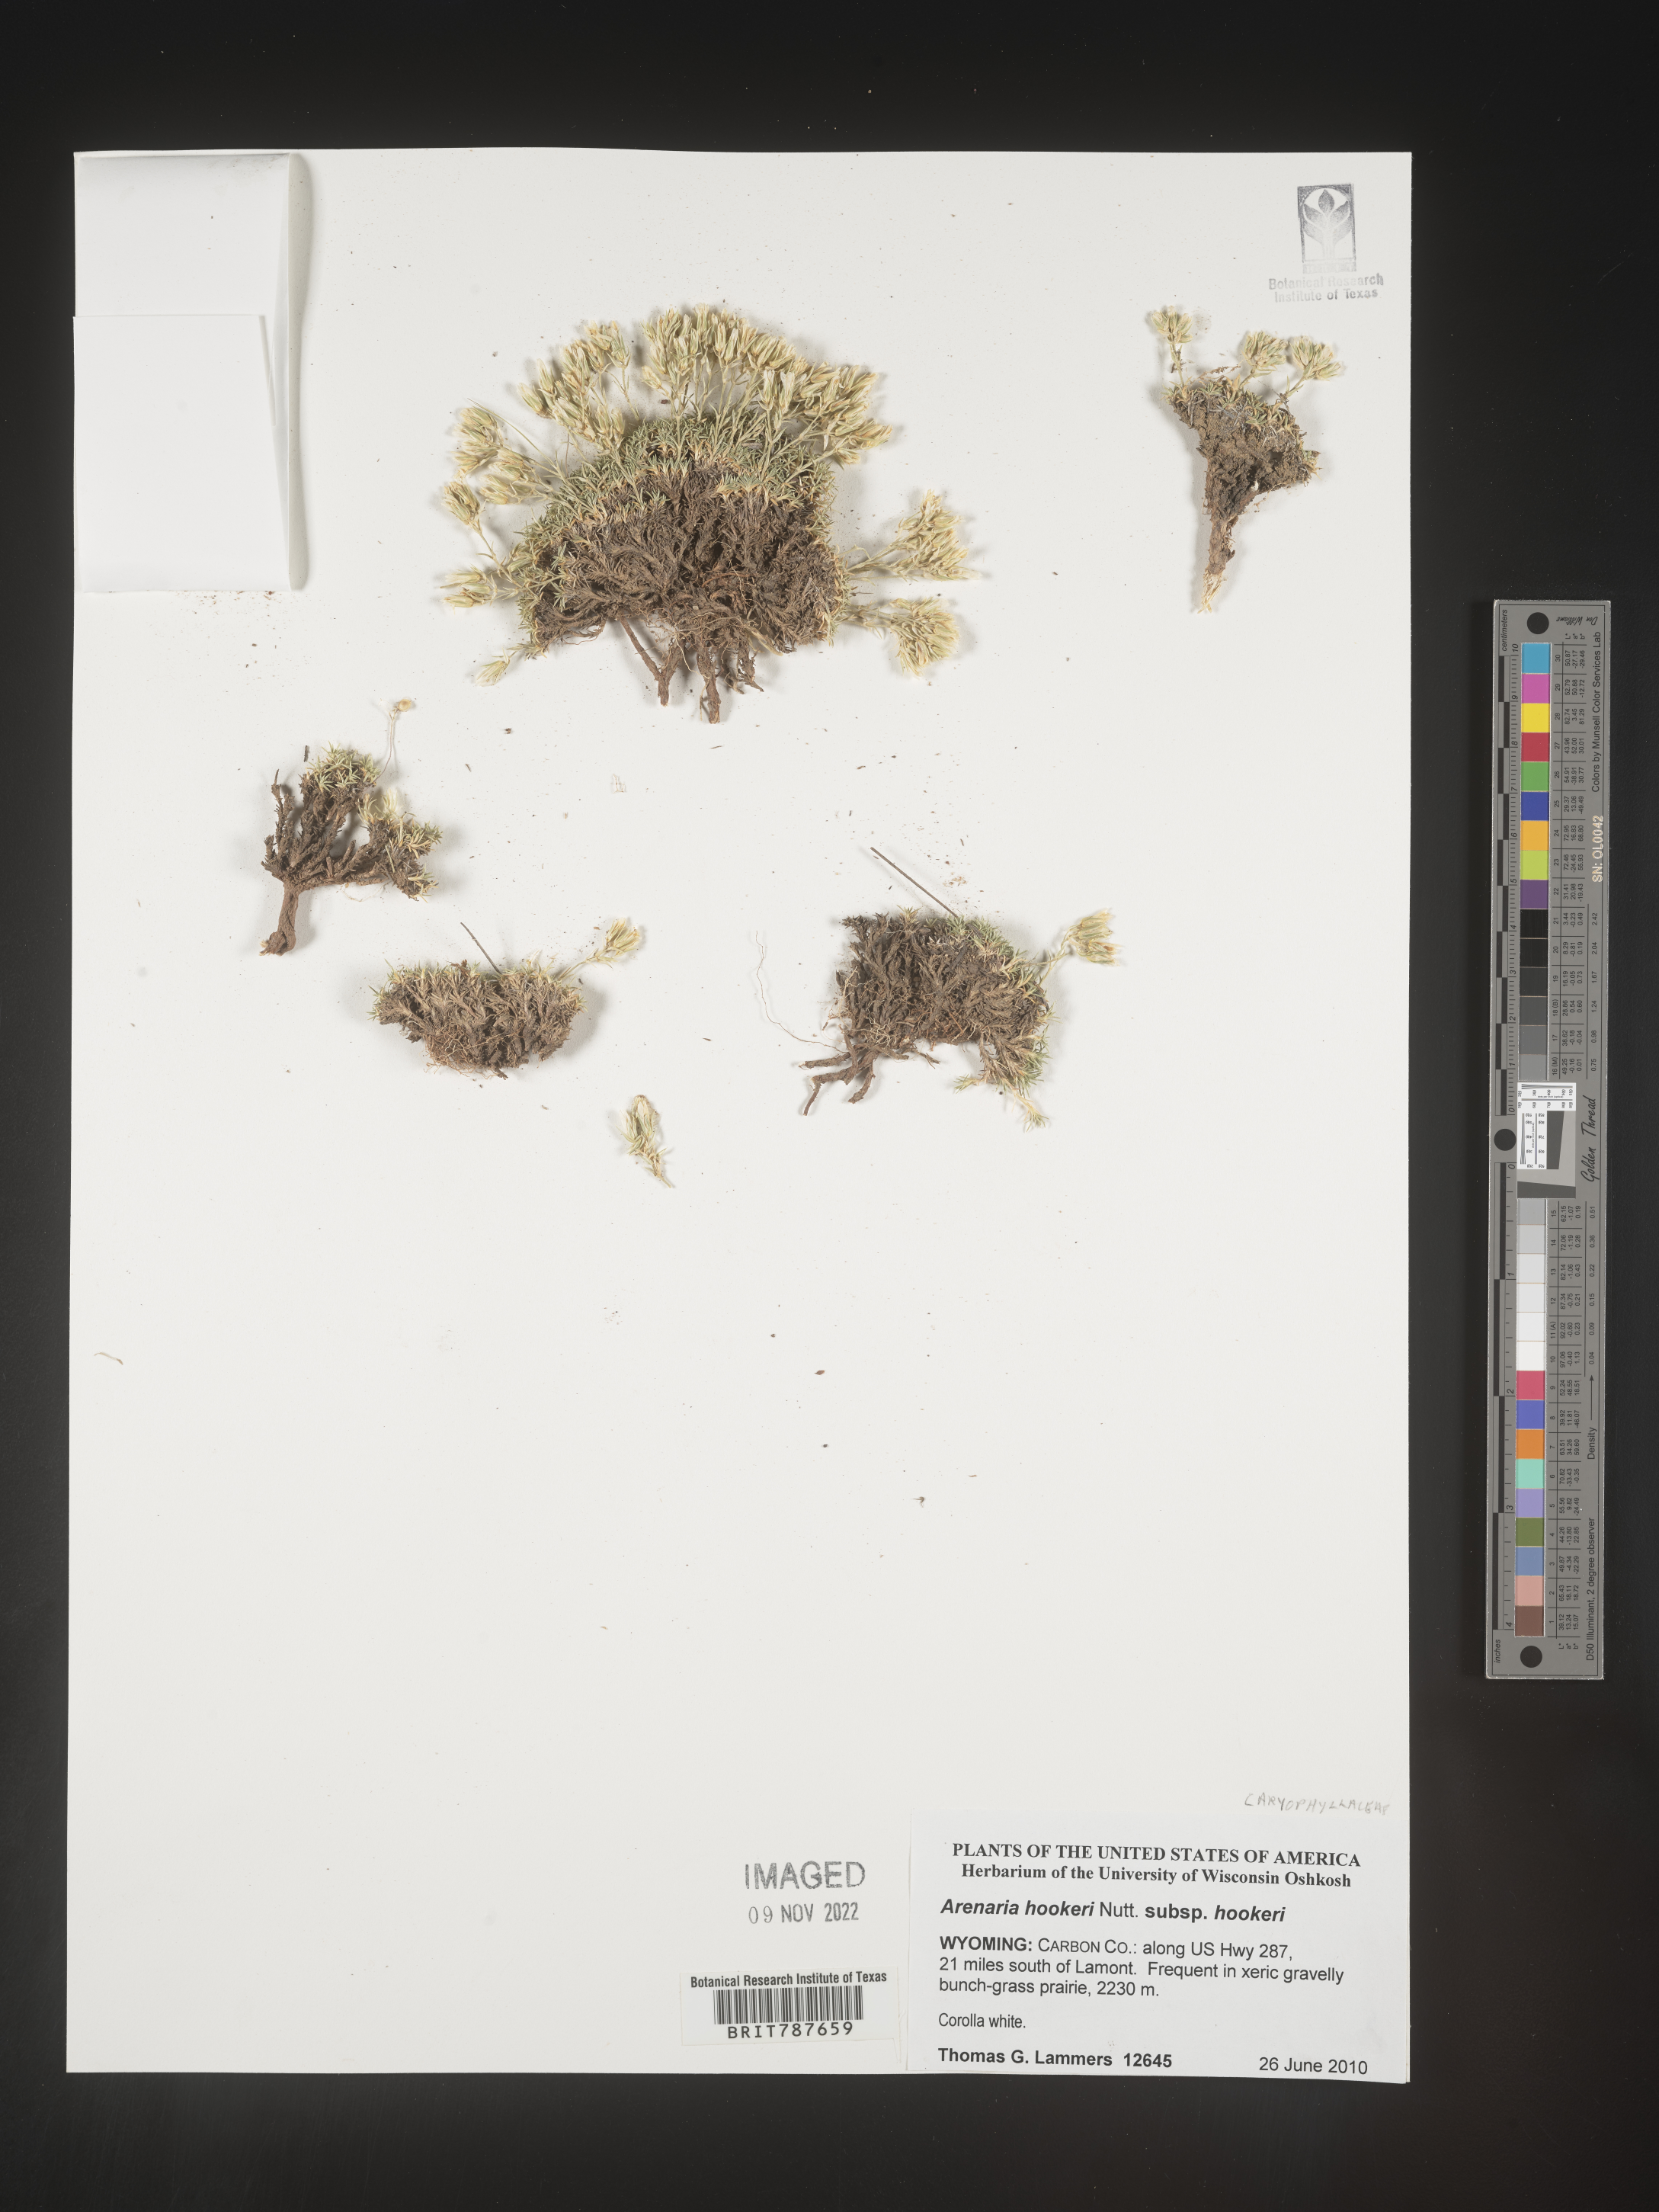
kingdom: Plantae
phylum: Tracheophyta
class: Magnoliopsida
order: Caryophyllales
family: Caryophyllaceae
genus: Arenaria
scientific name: Arenaria
